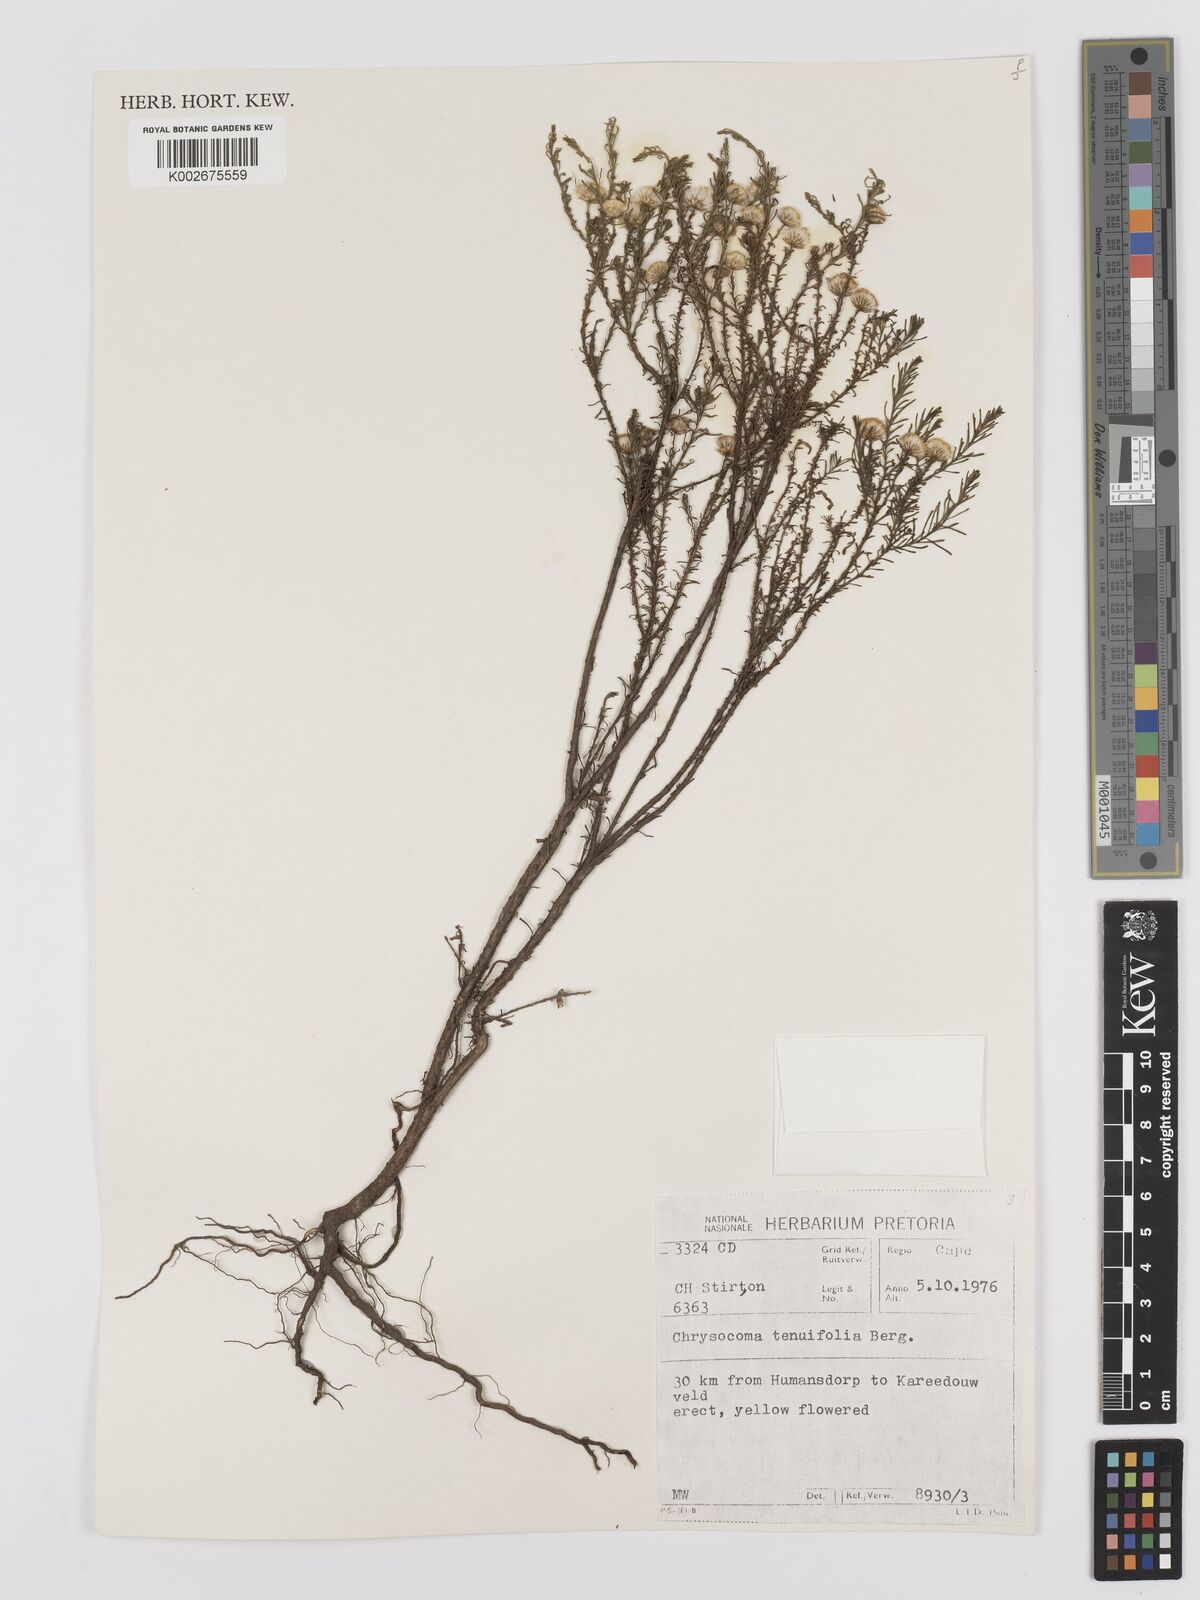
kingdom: Plantae
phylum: Tracheophyta
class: Magnoliopsida
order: Asterales
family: Asteraceae
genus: Chrysocoma
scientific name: Chrysocoma ciliata
